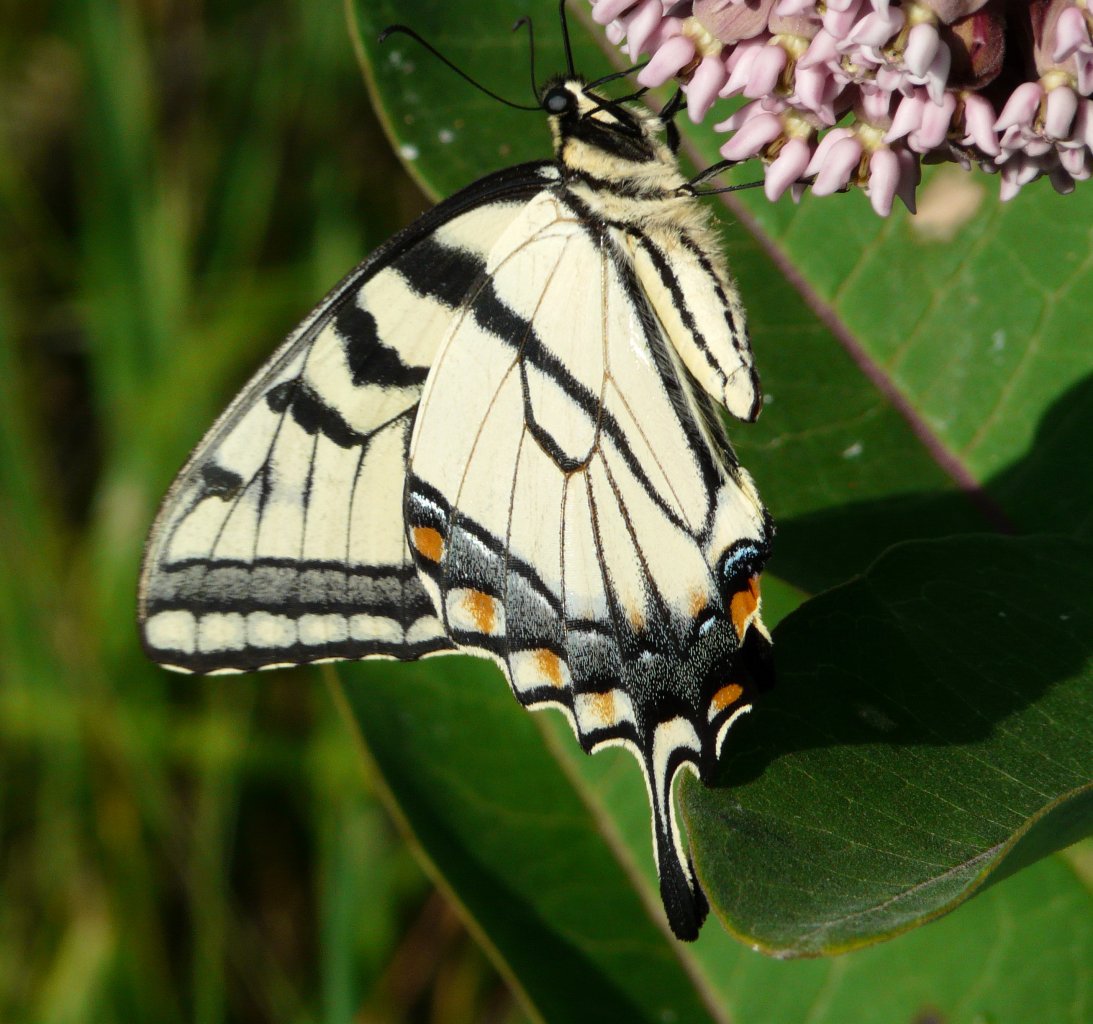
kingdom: Animalia
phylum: Arthropoda
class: Insecta
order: Lepidoptera
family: Papilionidae
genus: Pterourus
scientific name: Pterourus glaucus
